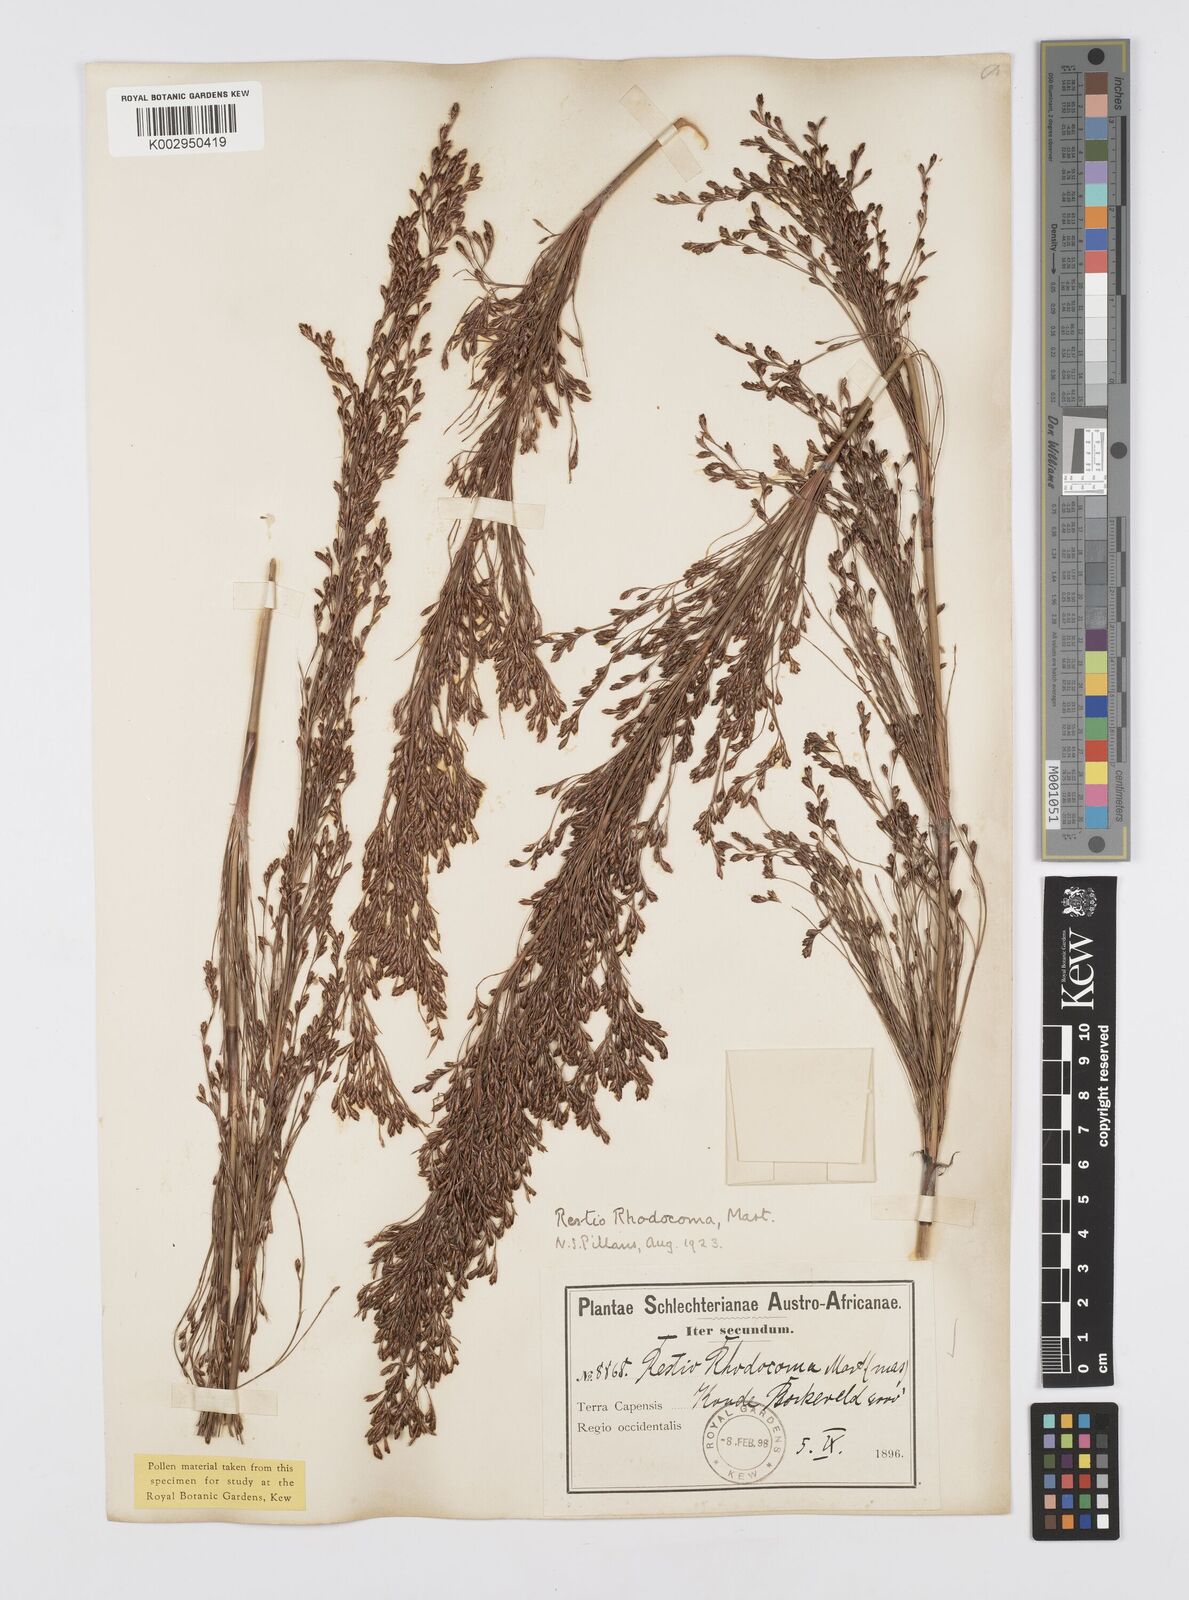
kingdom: Plantae
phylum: Tracheophyta
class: Liliopsida
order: Poales
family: Restionaceae
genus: Rhodocoma
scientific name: Rhodocoma capensis
